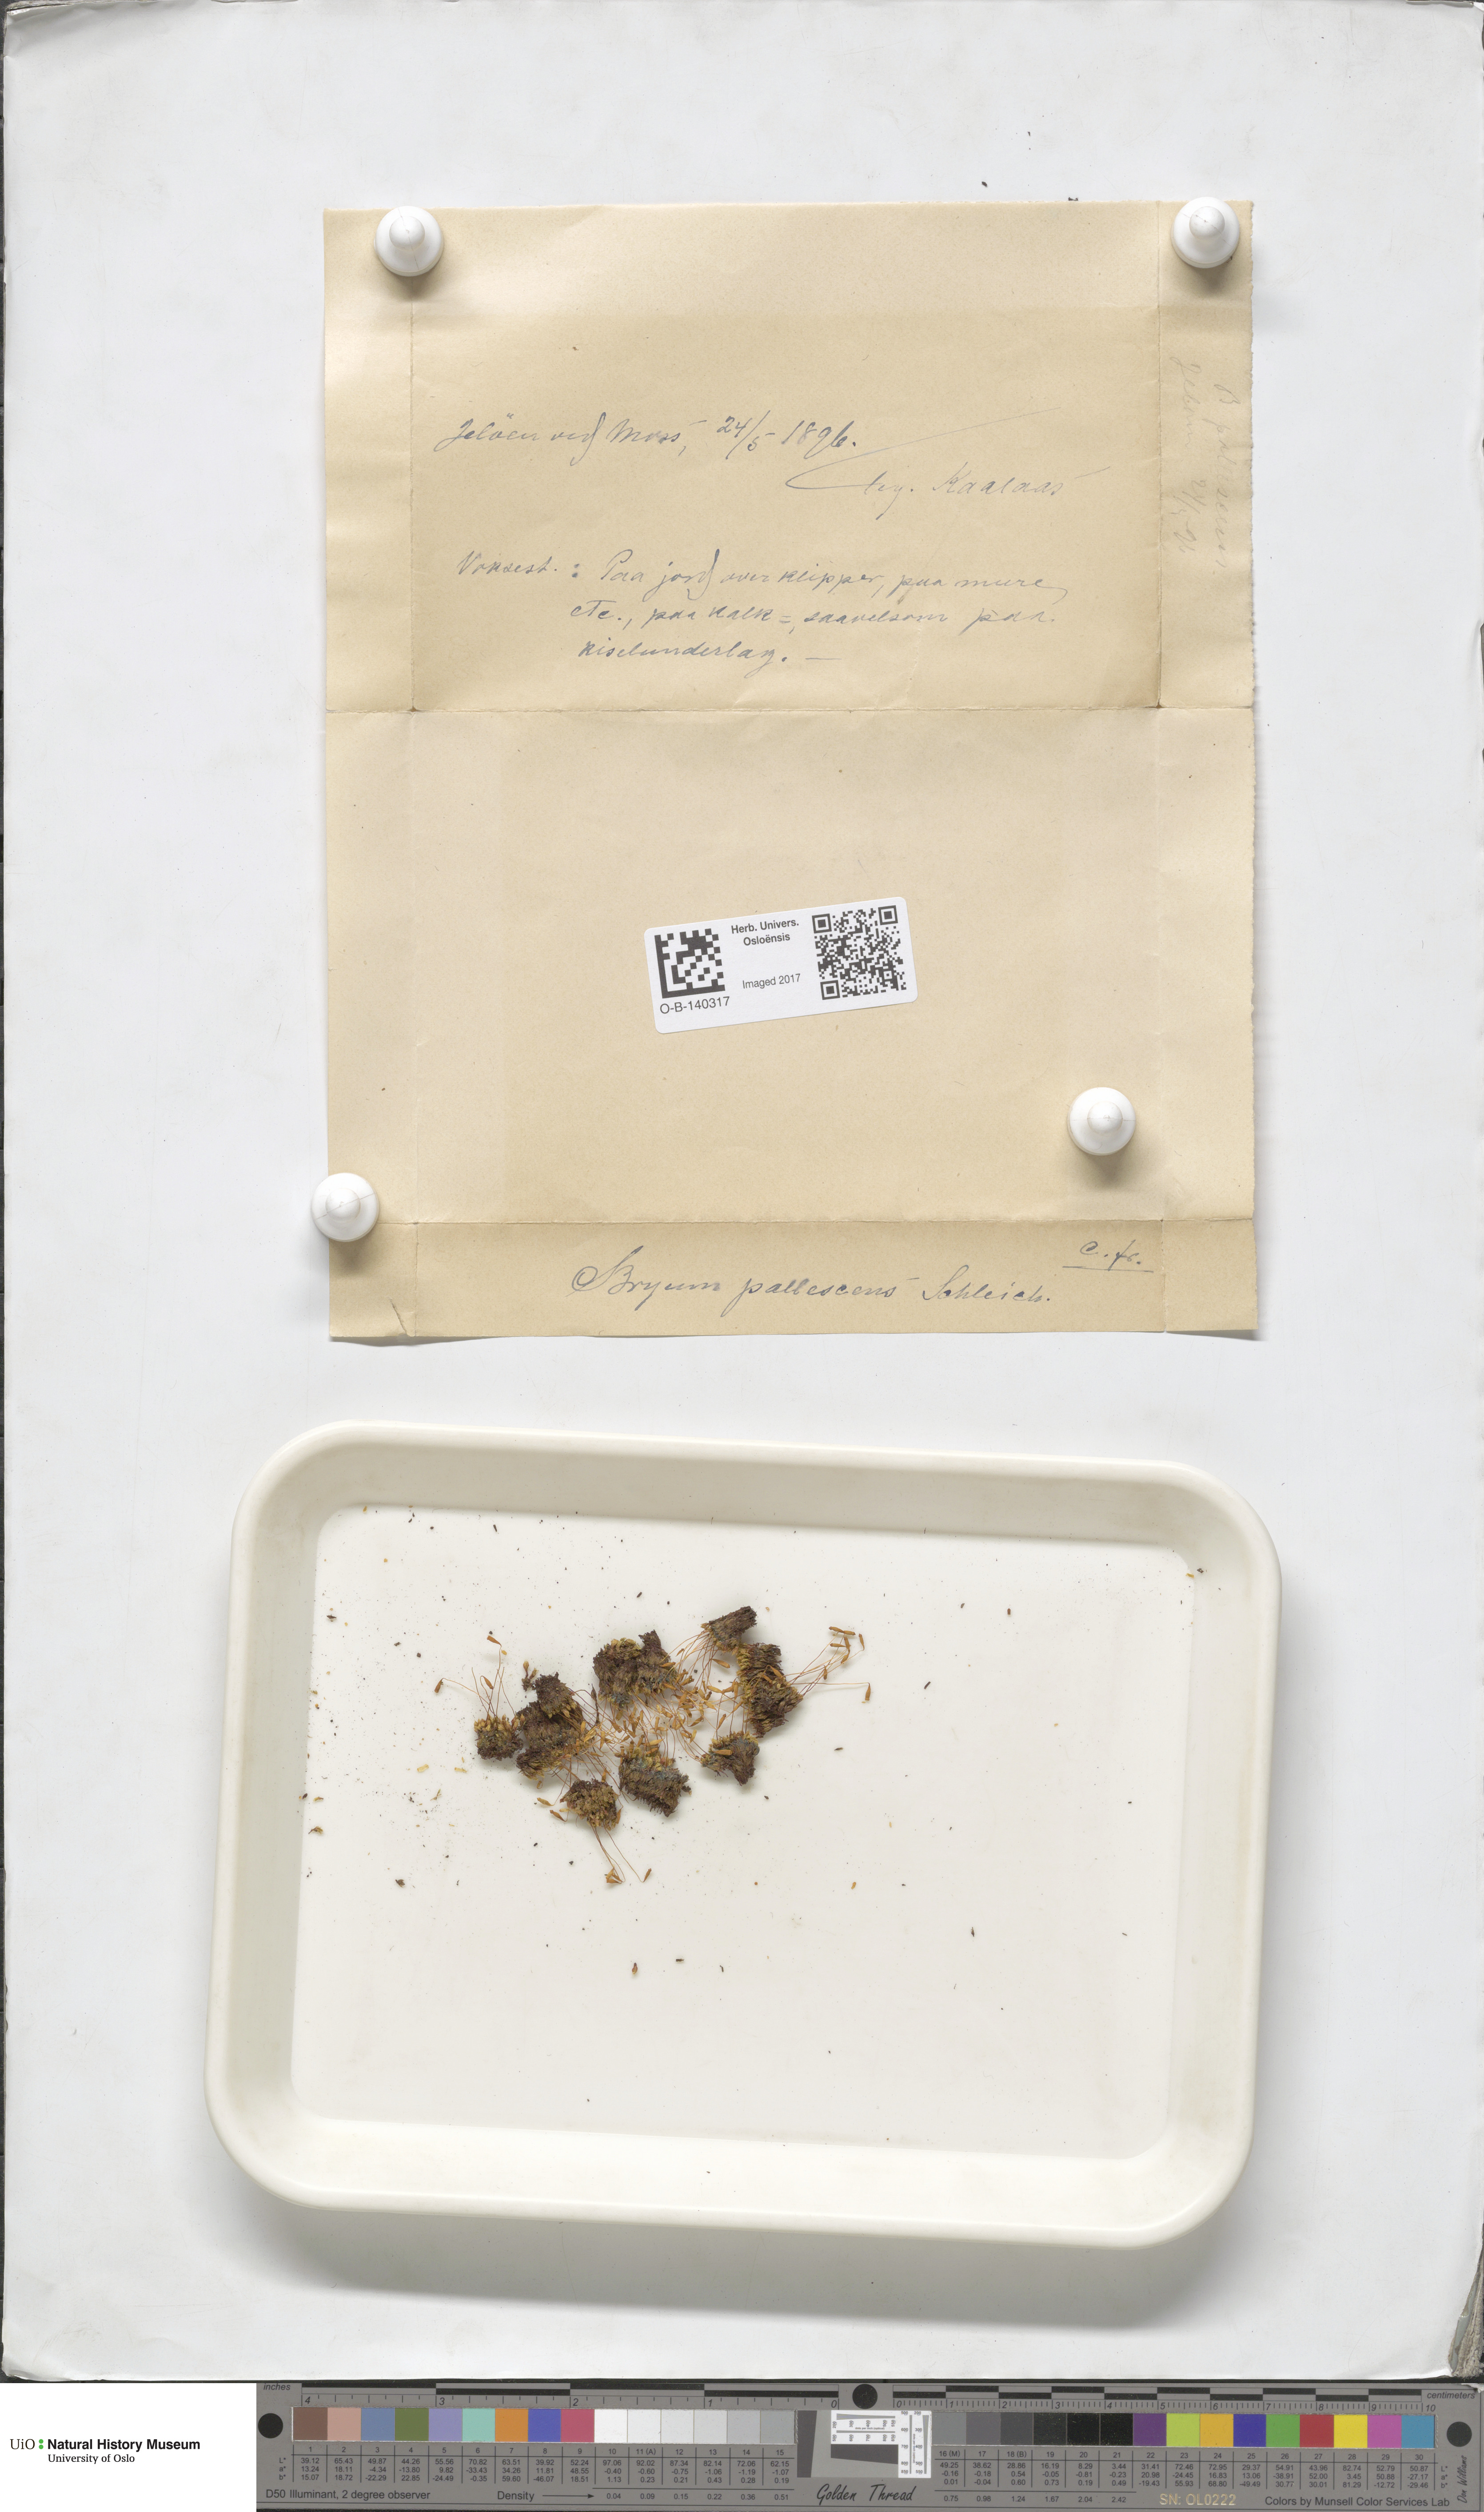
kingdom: Plantae
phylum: Bryophyta
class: Bryopsida
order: Bryales
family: Bryaceae
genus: Ptychostomum
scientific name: Ptychostomum pallens
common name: Pale thread-moss
